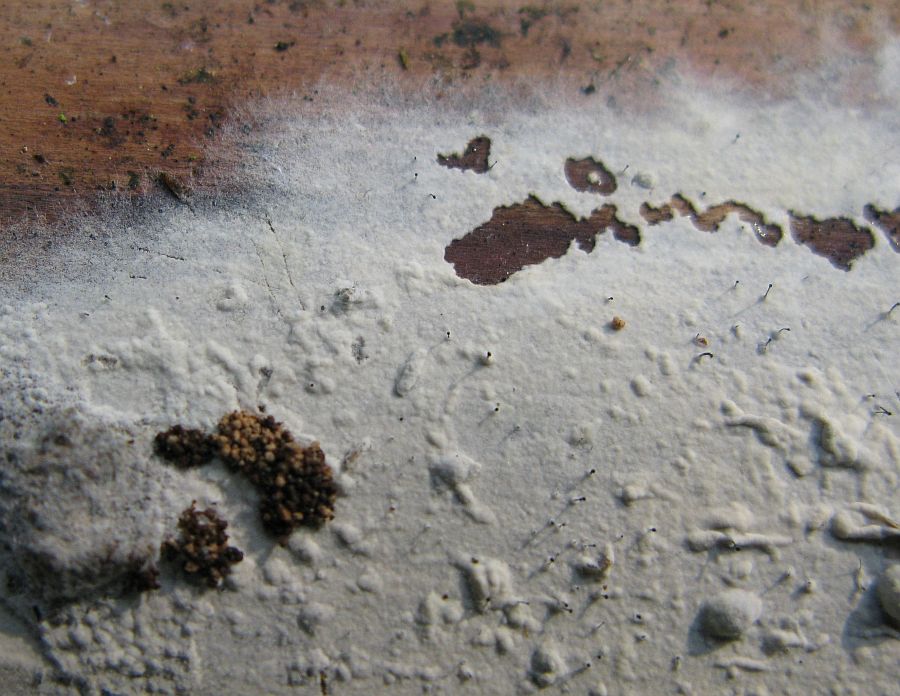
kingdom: Fungi
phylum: Basidiomycota
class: Agaricomycetes
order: Cantharellales
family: Botryobasidiaceae
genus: Botryobasidium
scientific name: Botryobasidium subcoronatum
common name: almindelig spindhinde
